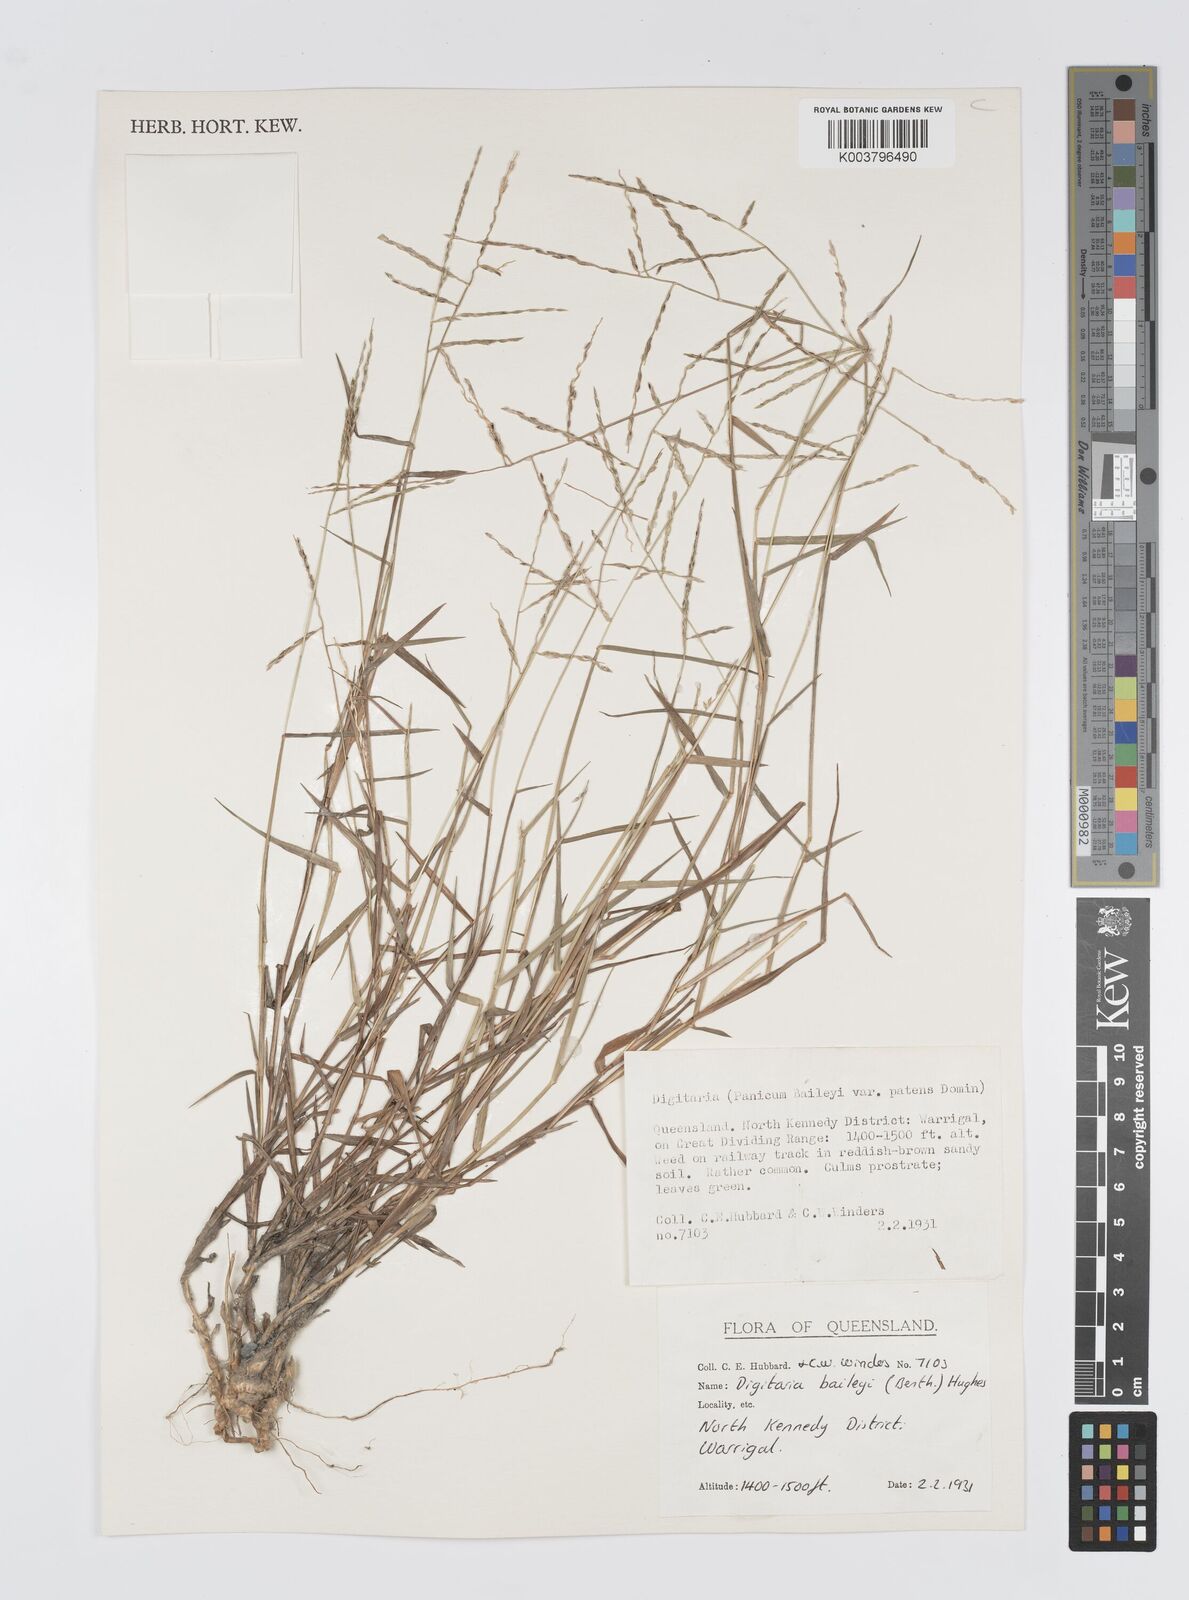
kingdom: Plantae
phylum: Tracheophyta
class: Liliopsida
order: Poales
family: Poaceae
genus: Digitaria
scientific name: Digitaria baileyi
